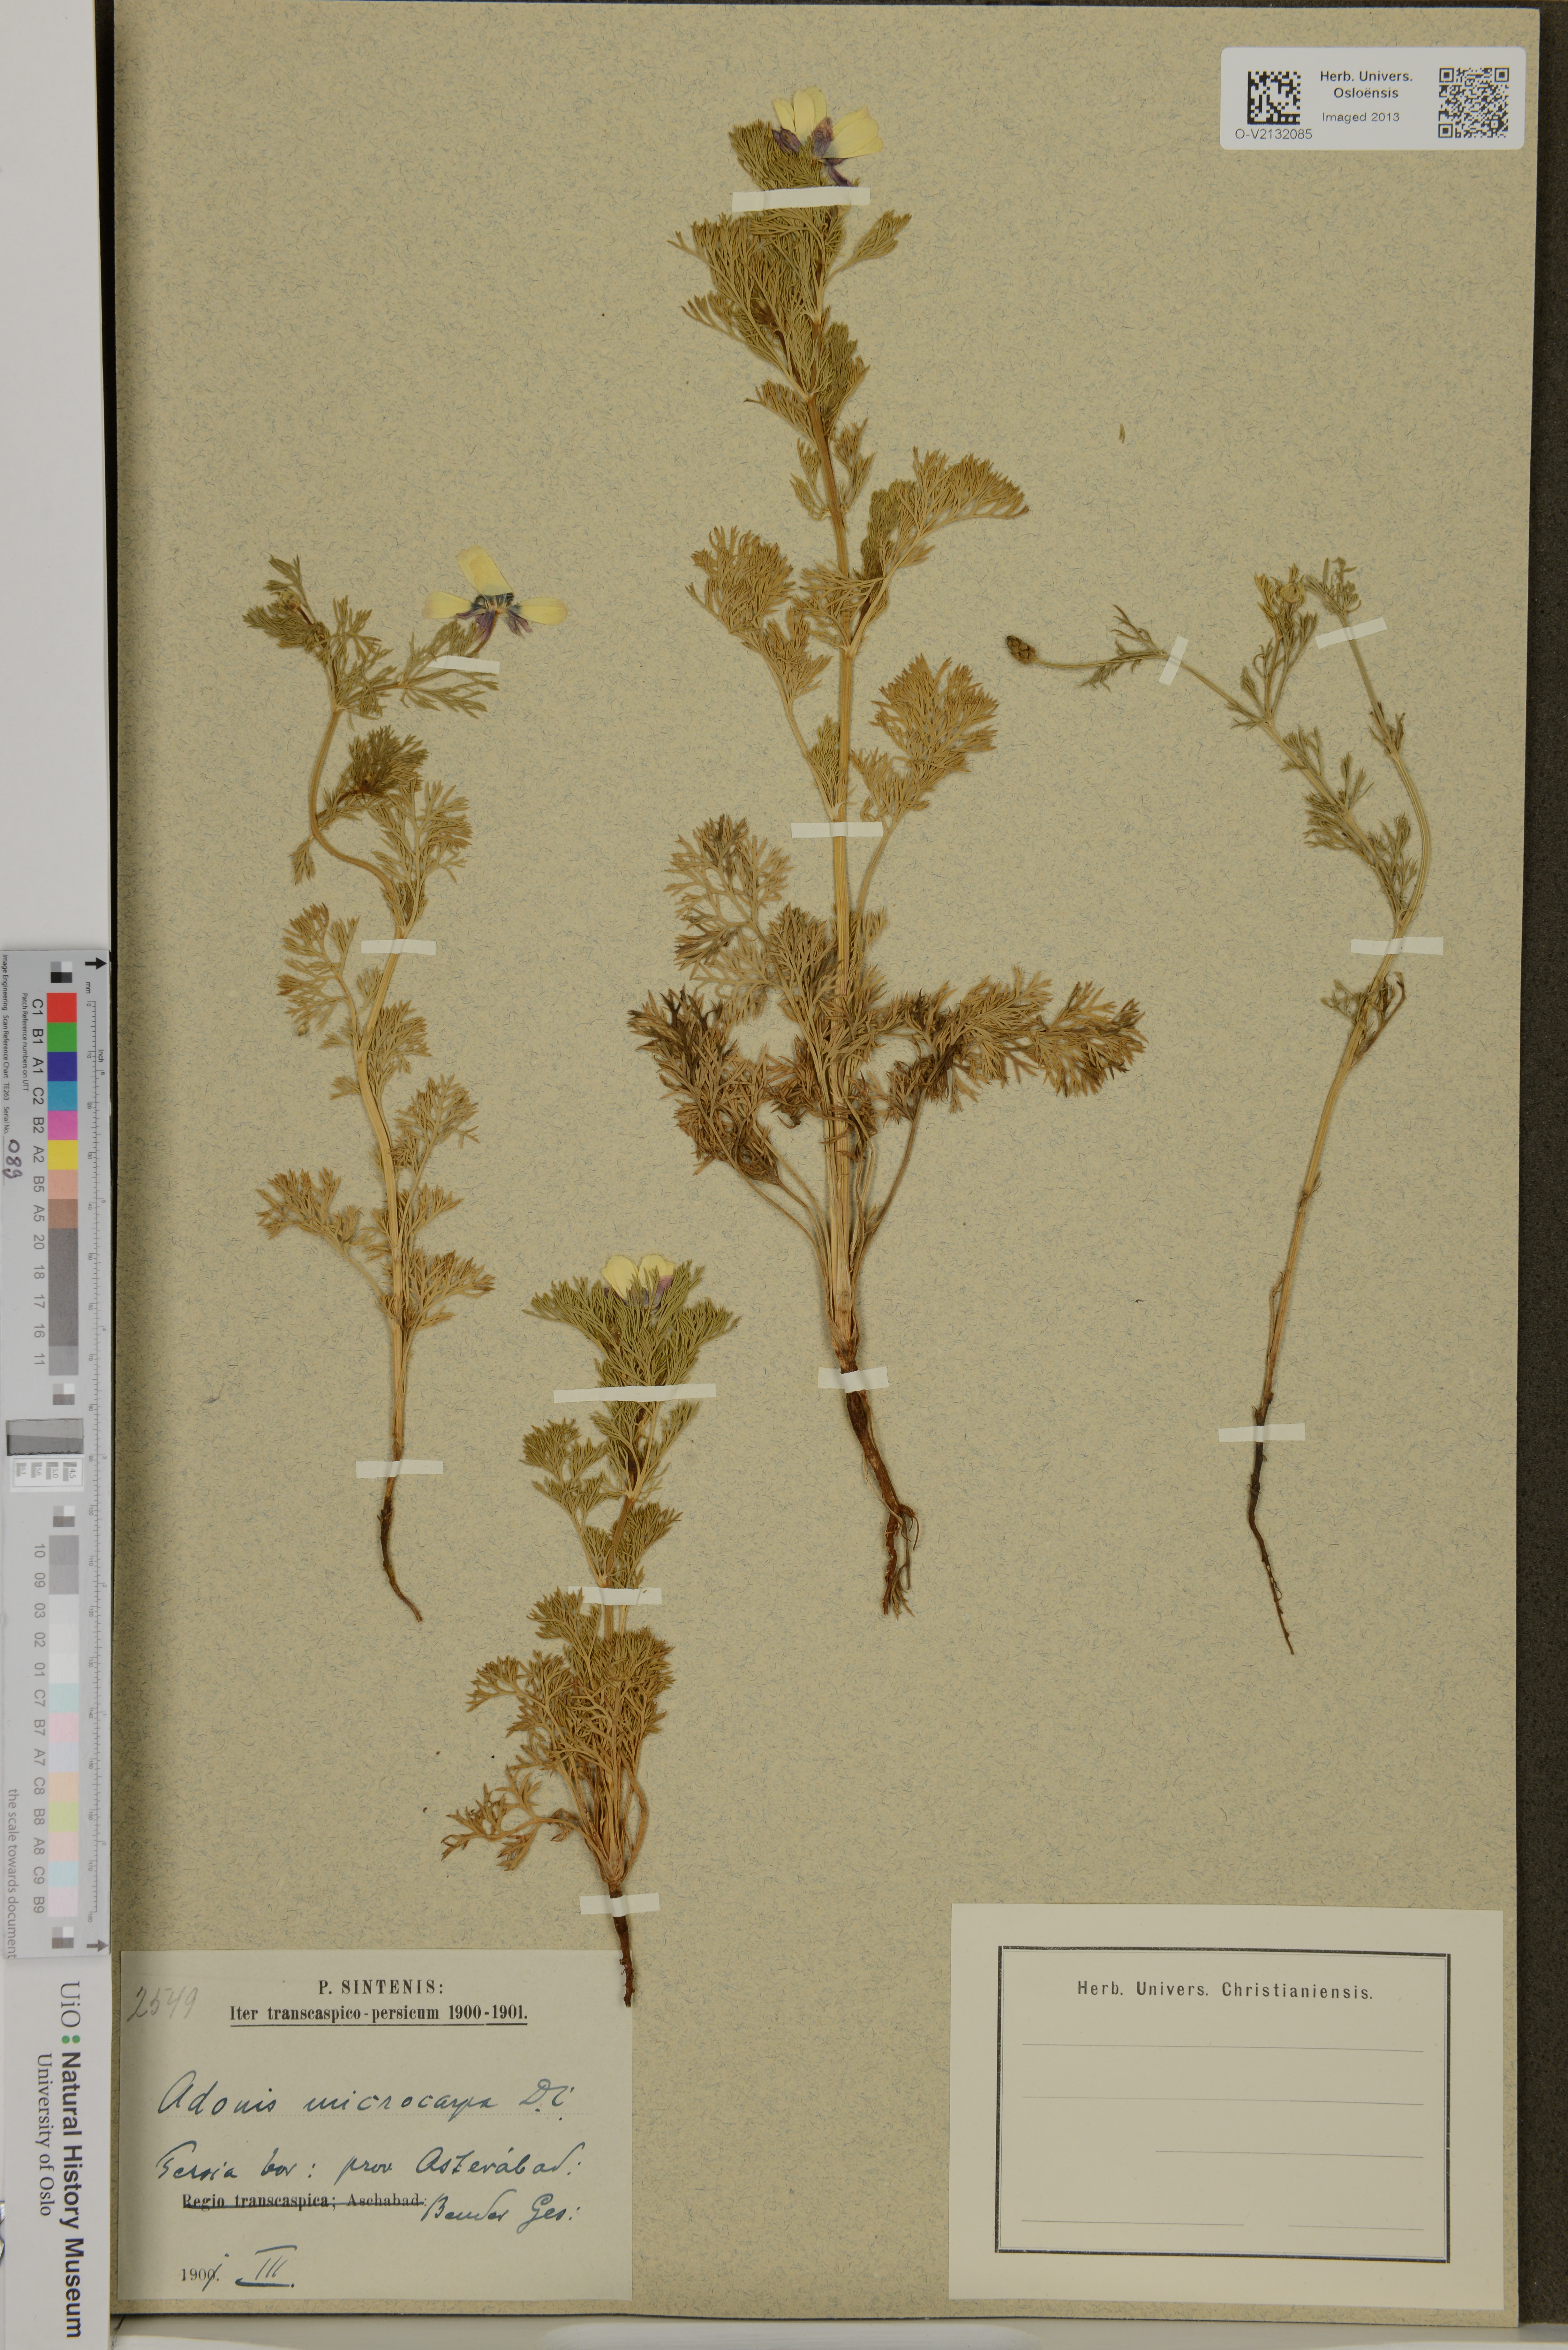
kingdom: Plantae
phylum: Tracheophyta
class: Magnoliopsida
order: Ranunculales
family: Ranunculaceae
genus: Adonis
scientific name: Adonis microcarpa
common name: Pheasant's-eye
